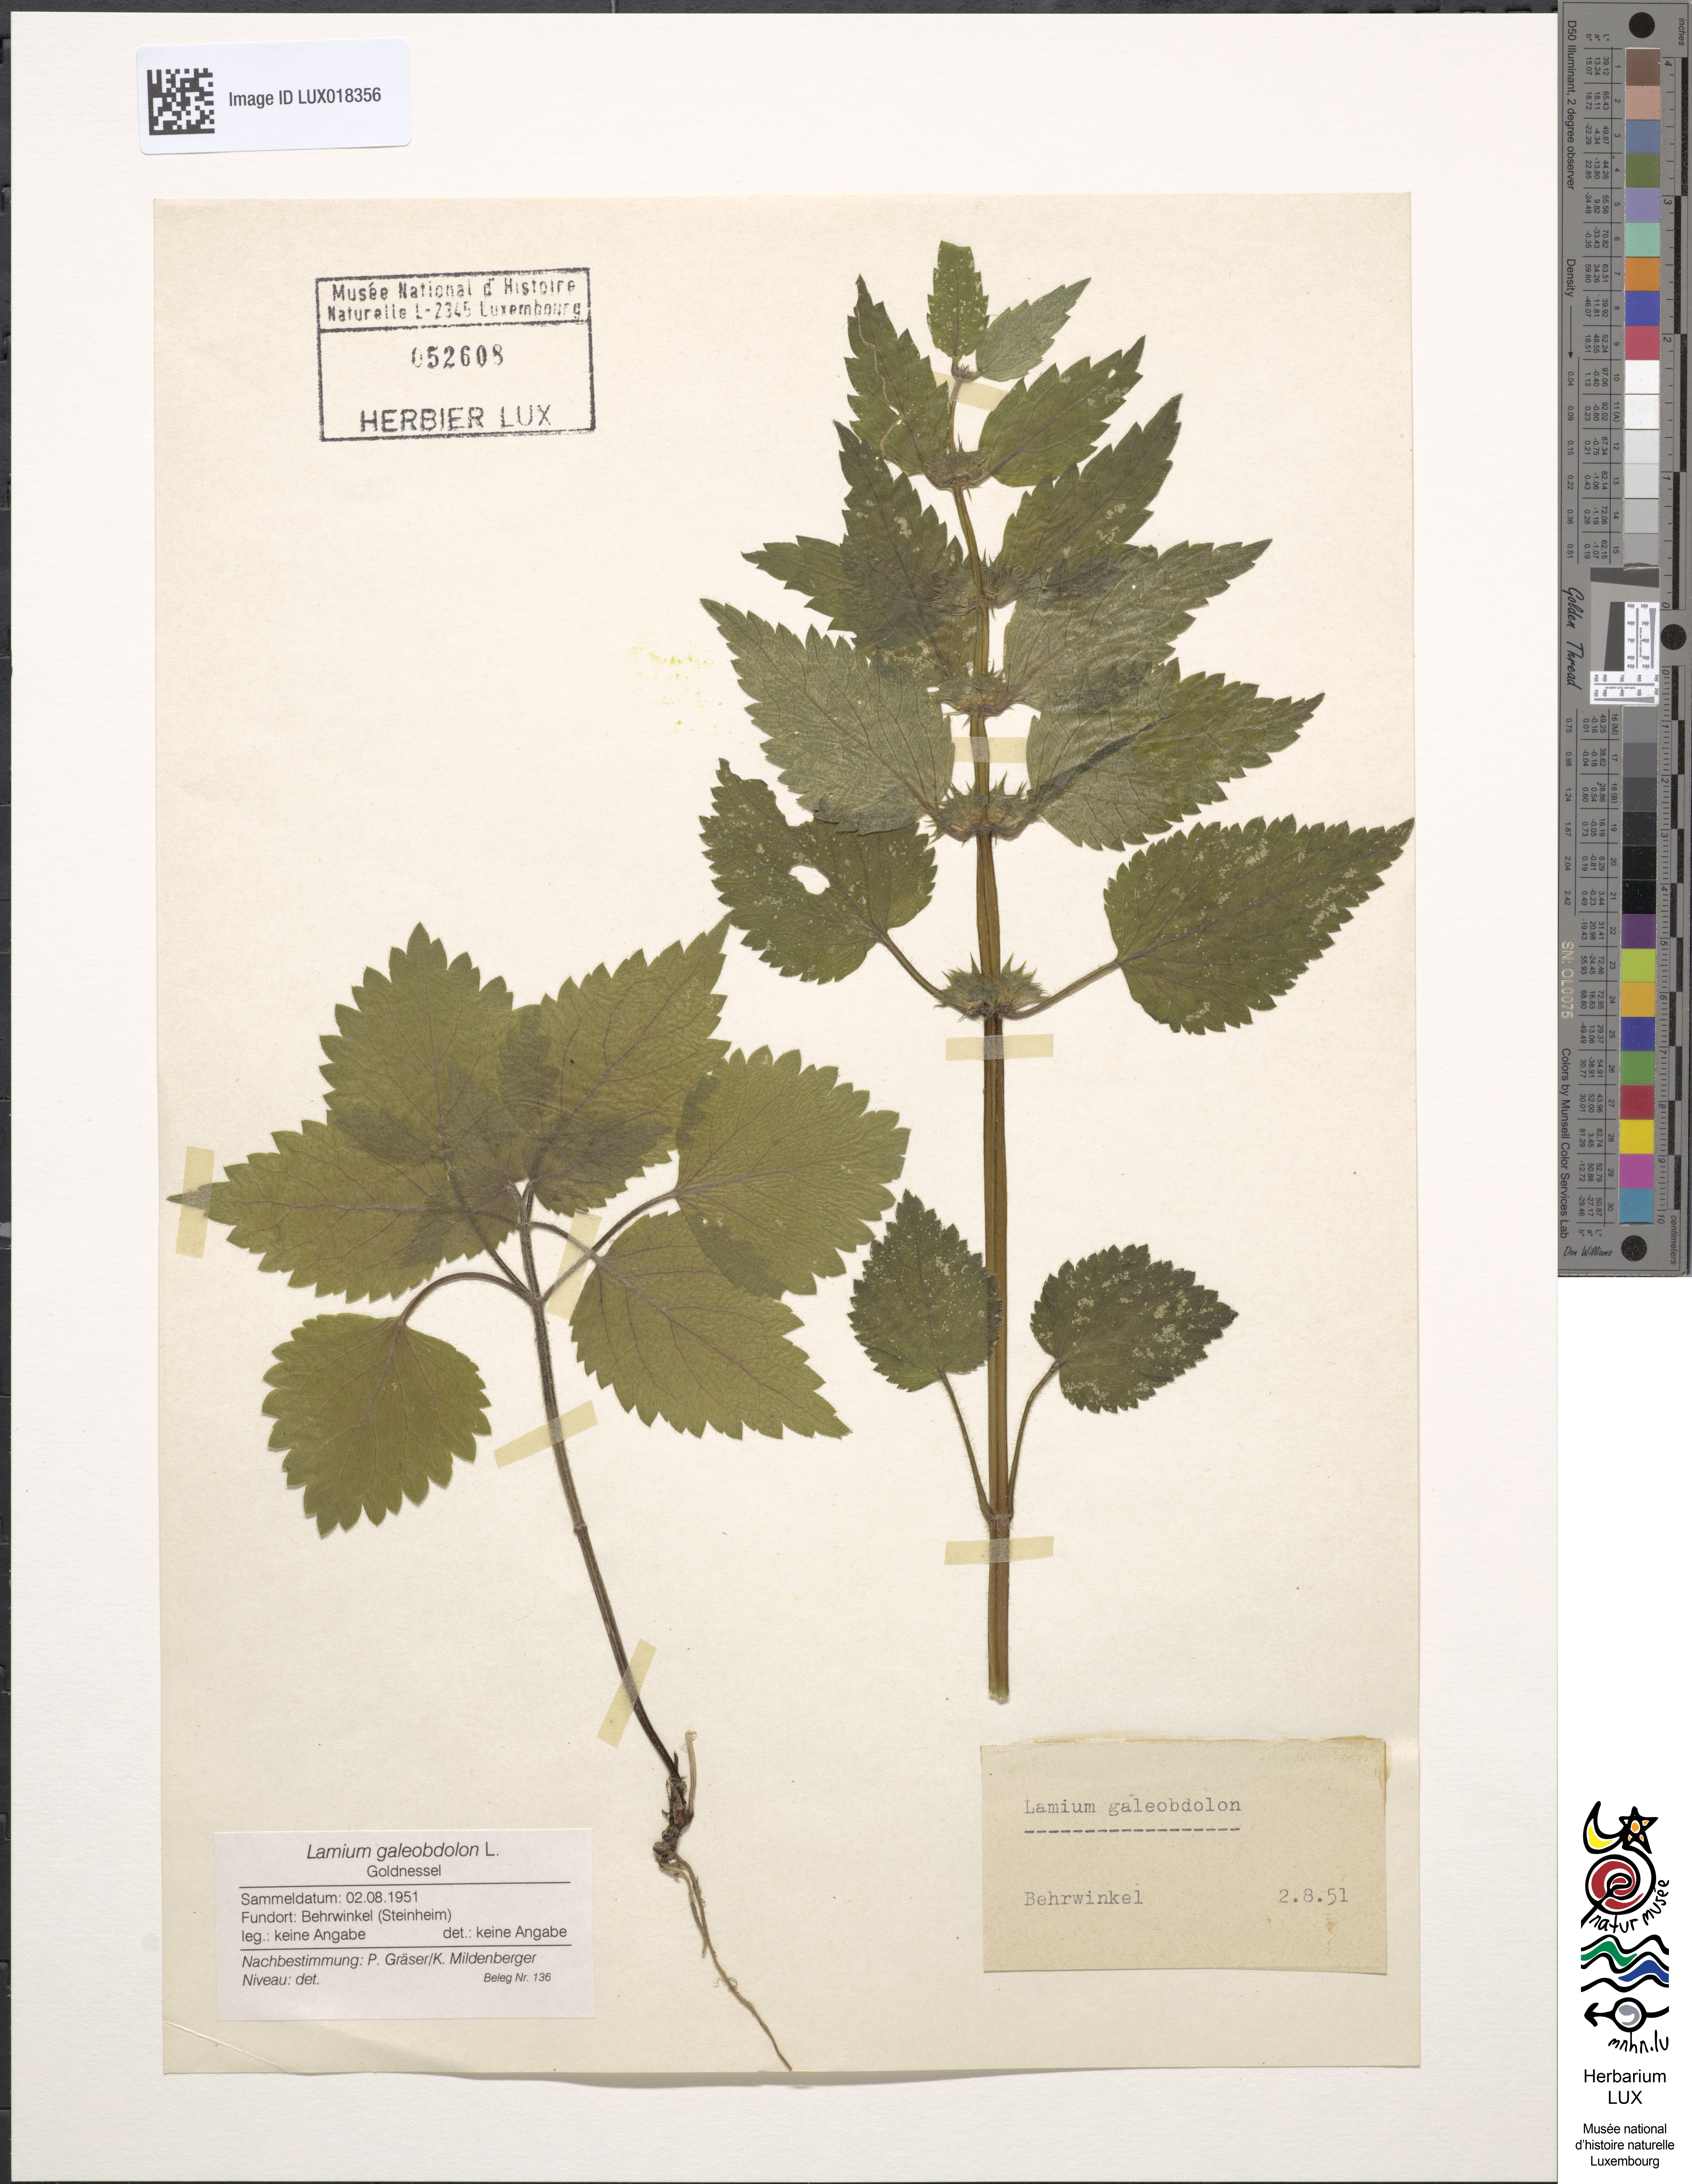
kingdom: Plantae
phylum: Tracheophyta
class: Magnoliopsida
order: Lamiales
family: Lamiaceae
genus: Lamium
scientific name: Lamium galeobdolon
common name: Yellow archangel
